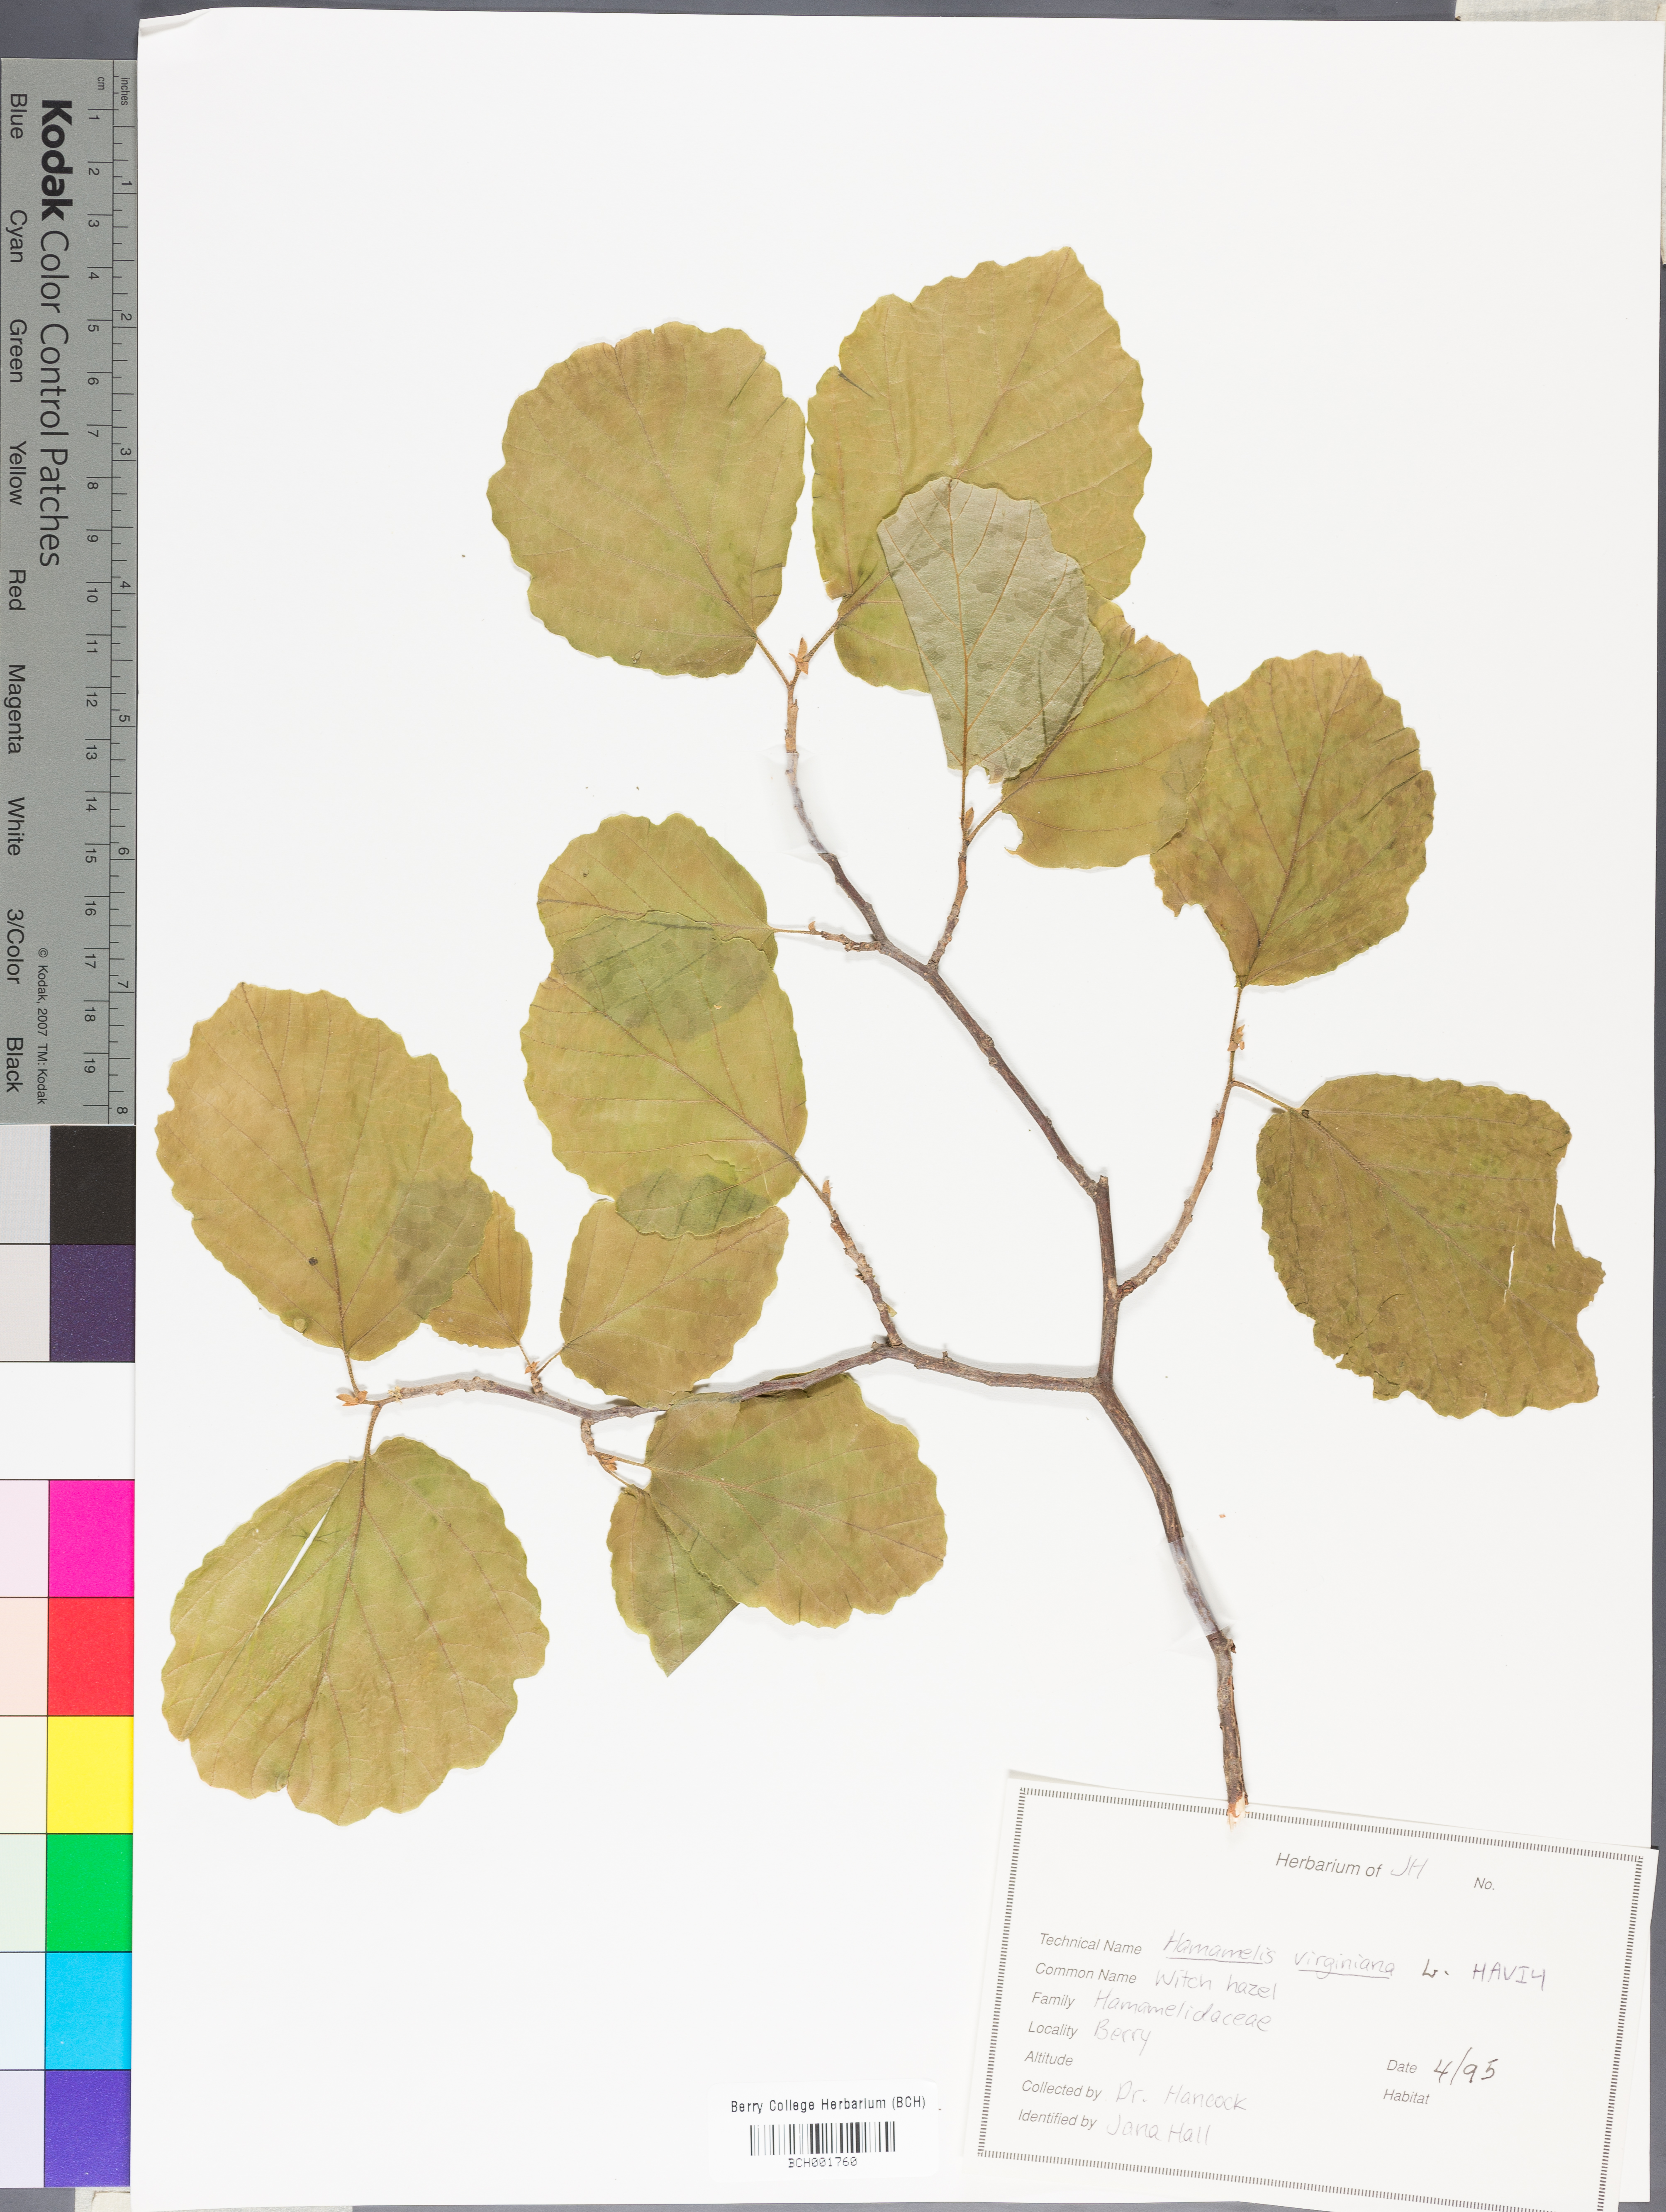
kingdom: Plantae
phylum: Tracheophyta
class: Magnoliopsida
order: Saxifragales
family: Hamamelidaceae
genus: Hamamelis
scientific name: Hamamelis virginiana
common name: Witch-hazel
